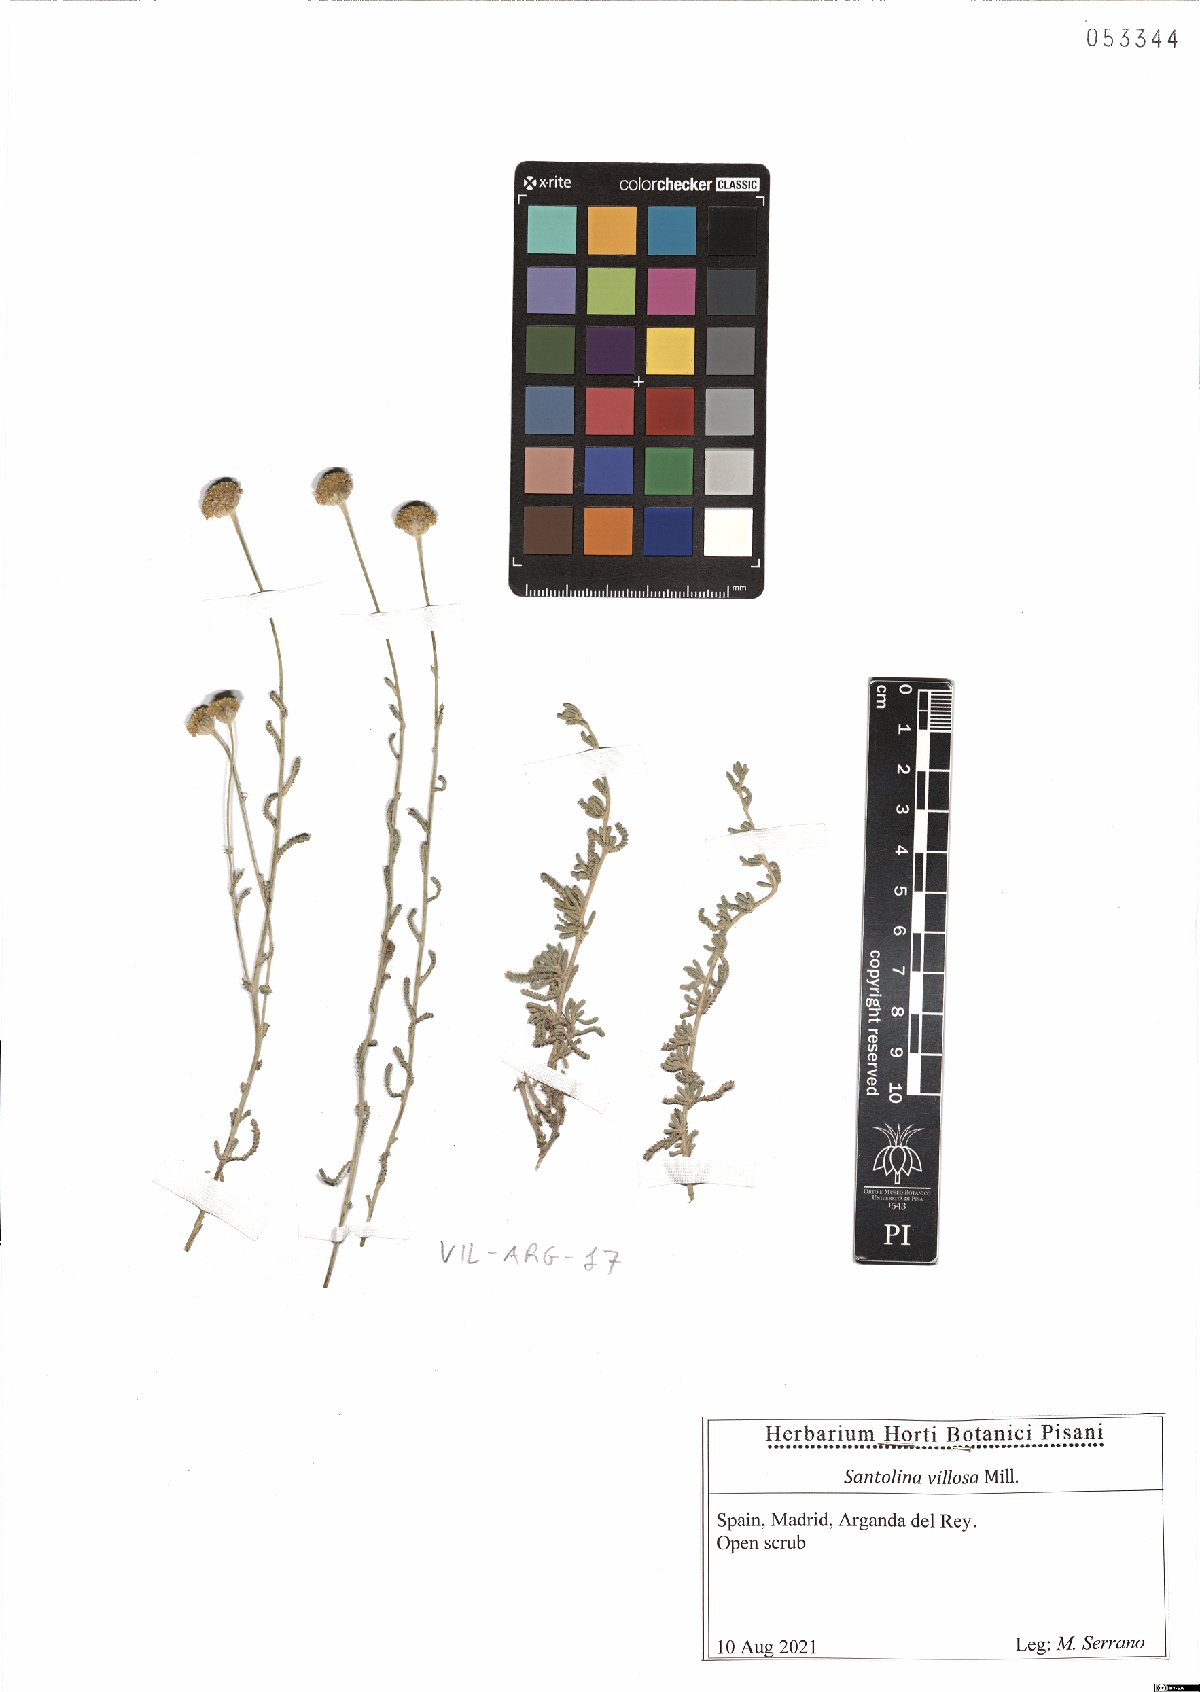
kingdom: Plantae
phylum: Tracheophyta
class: Magnoliopsida
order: Asterales
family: Asteraceae
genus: Santolina
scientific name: Santolina chamaecyparissus
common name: Lavender-cotton
